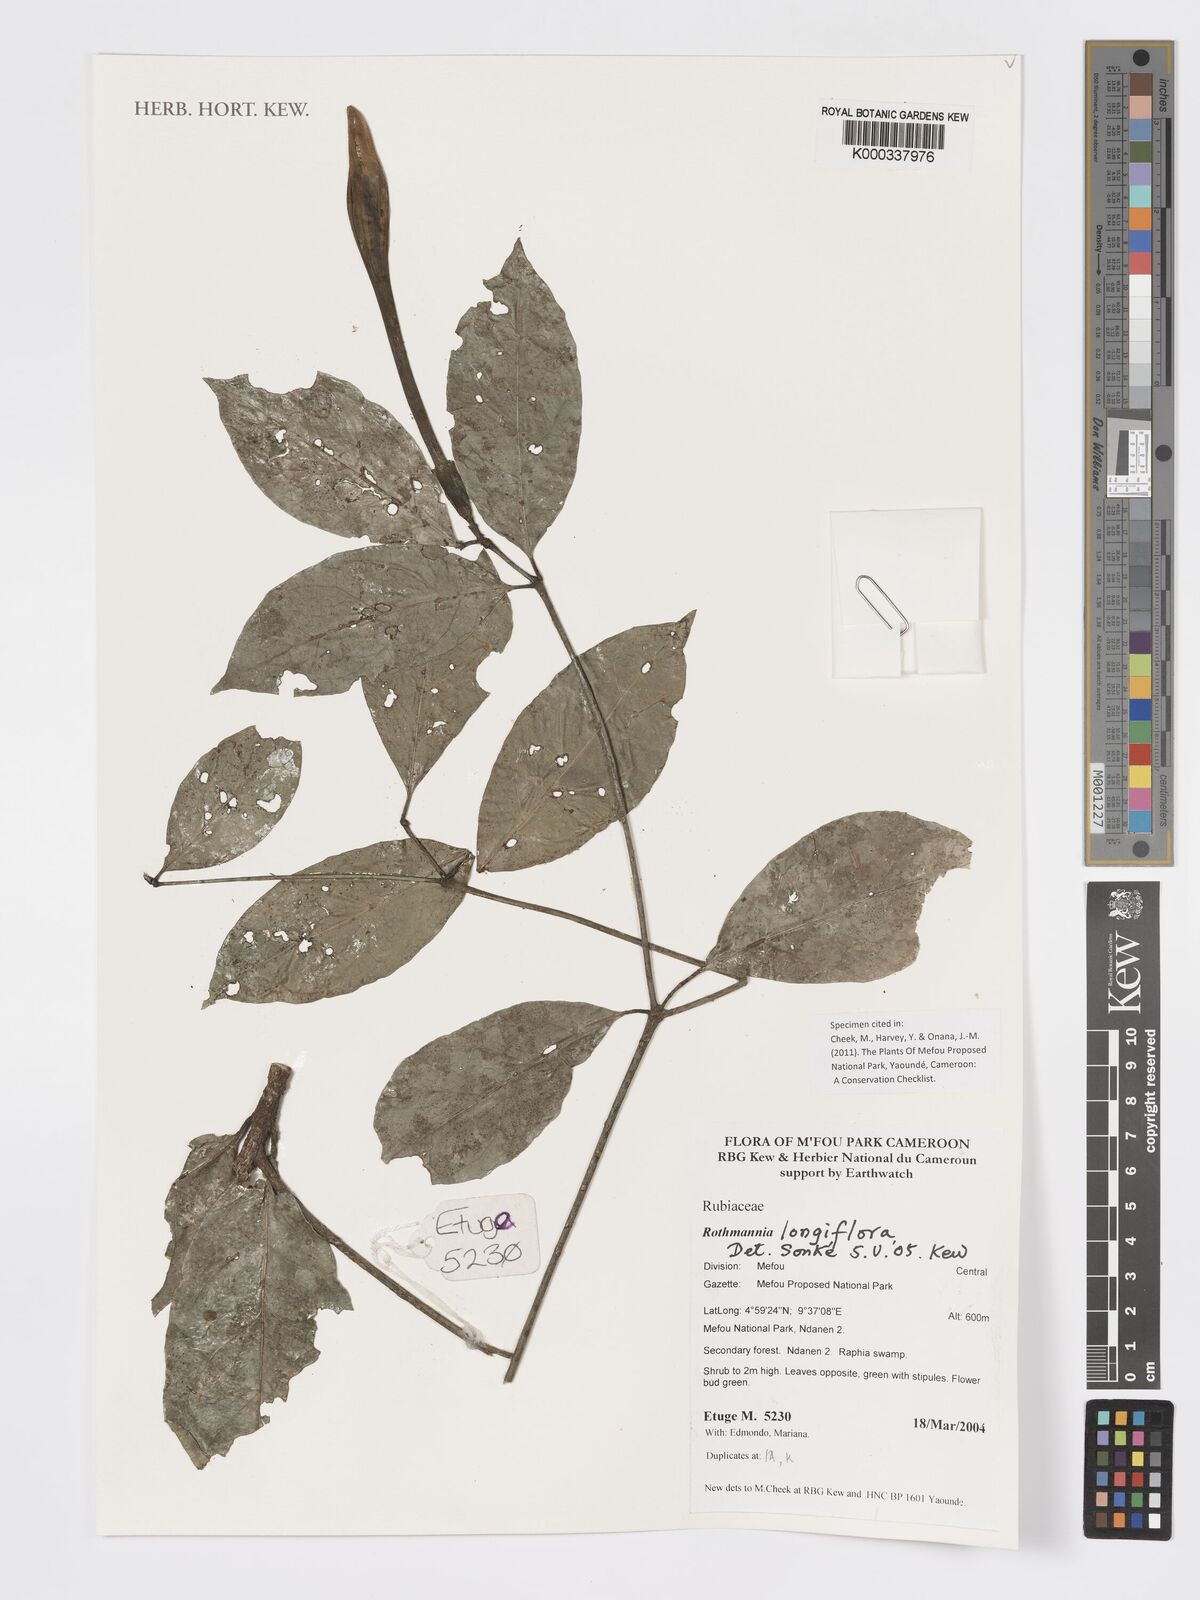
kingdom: Plantae
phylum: Tracheophyta
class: Magnoliopsida
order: Gentianales
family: Rubiaceae
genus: Rothmannia
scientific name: Rothmannia longiflora
